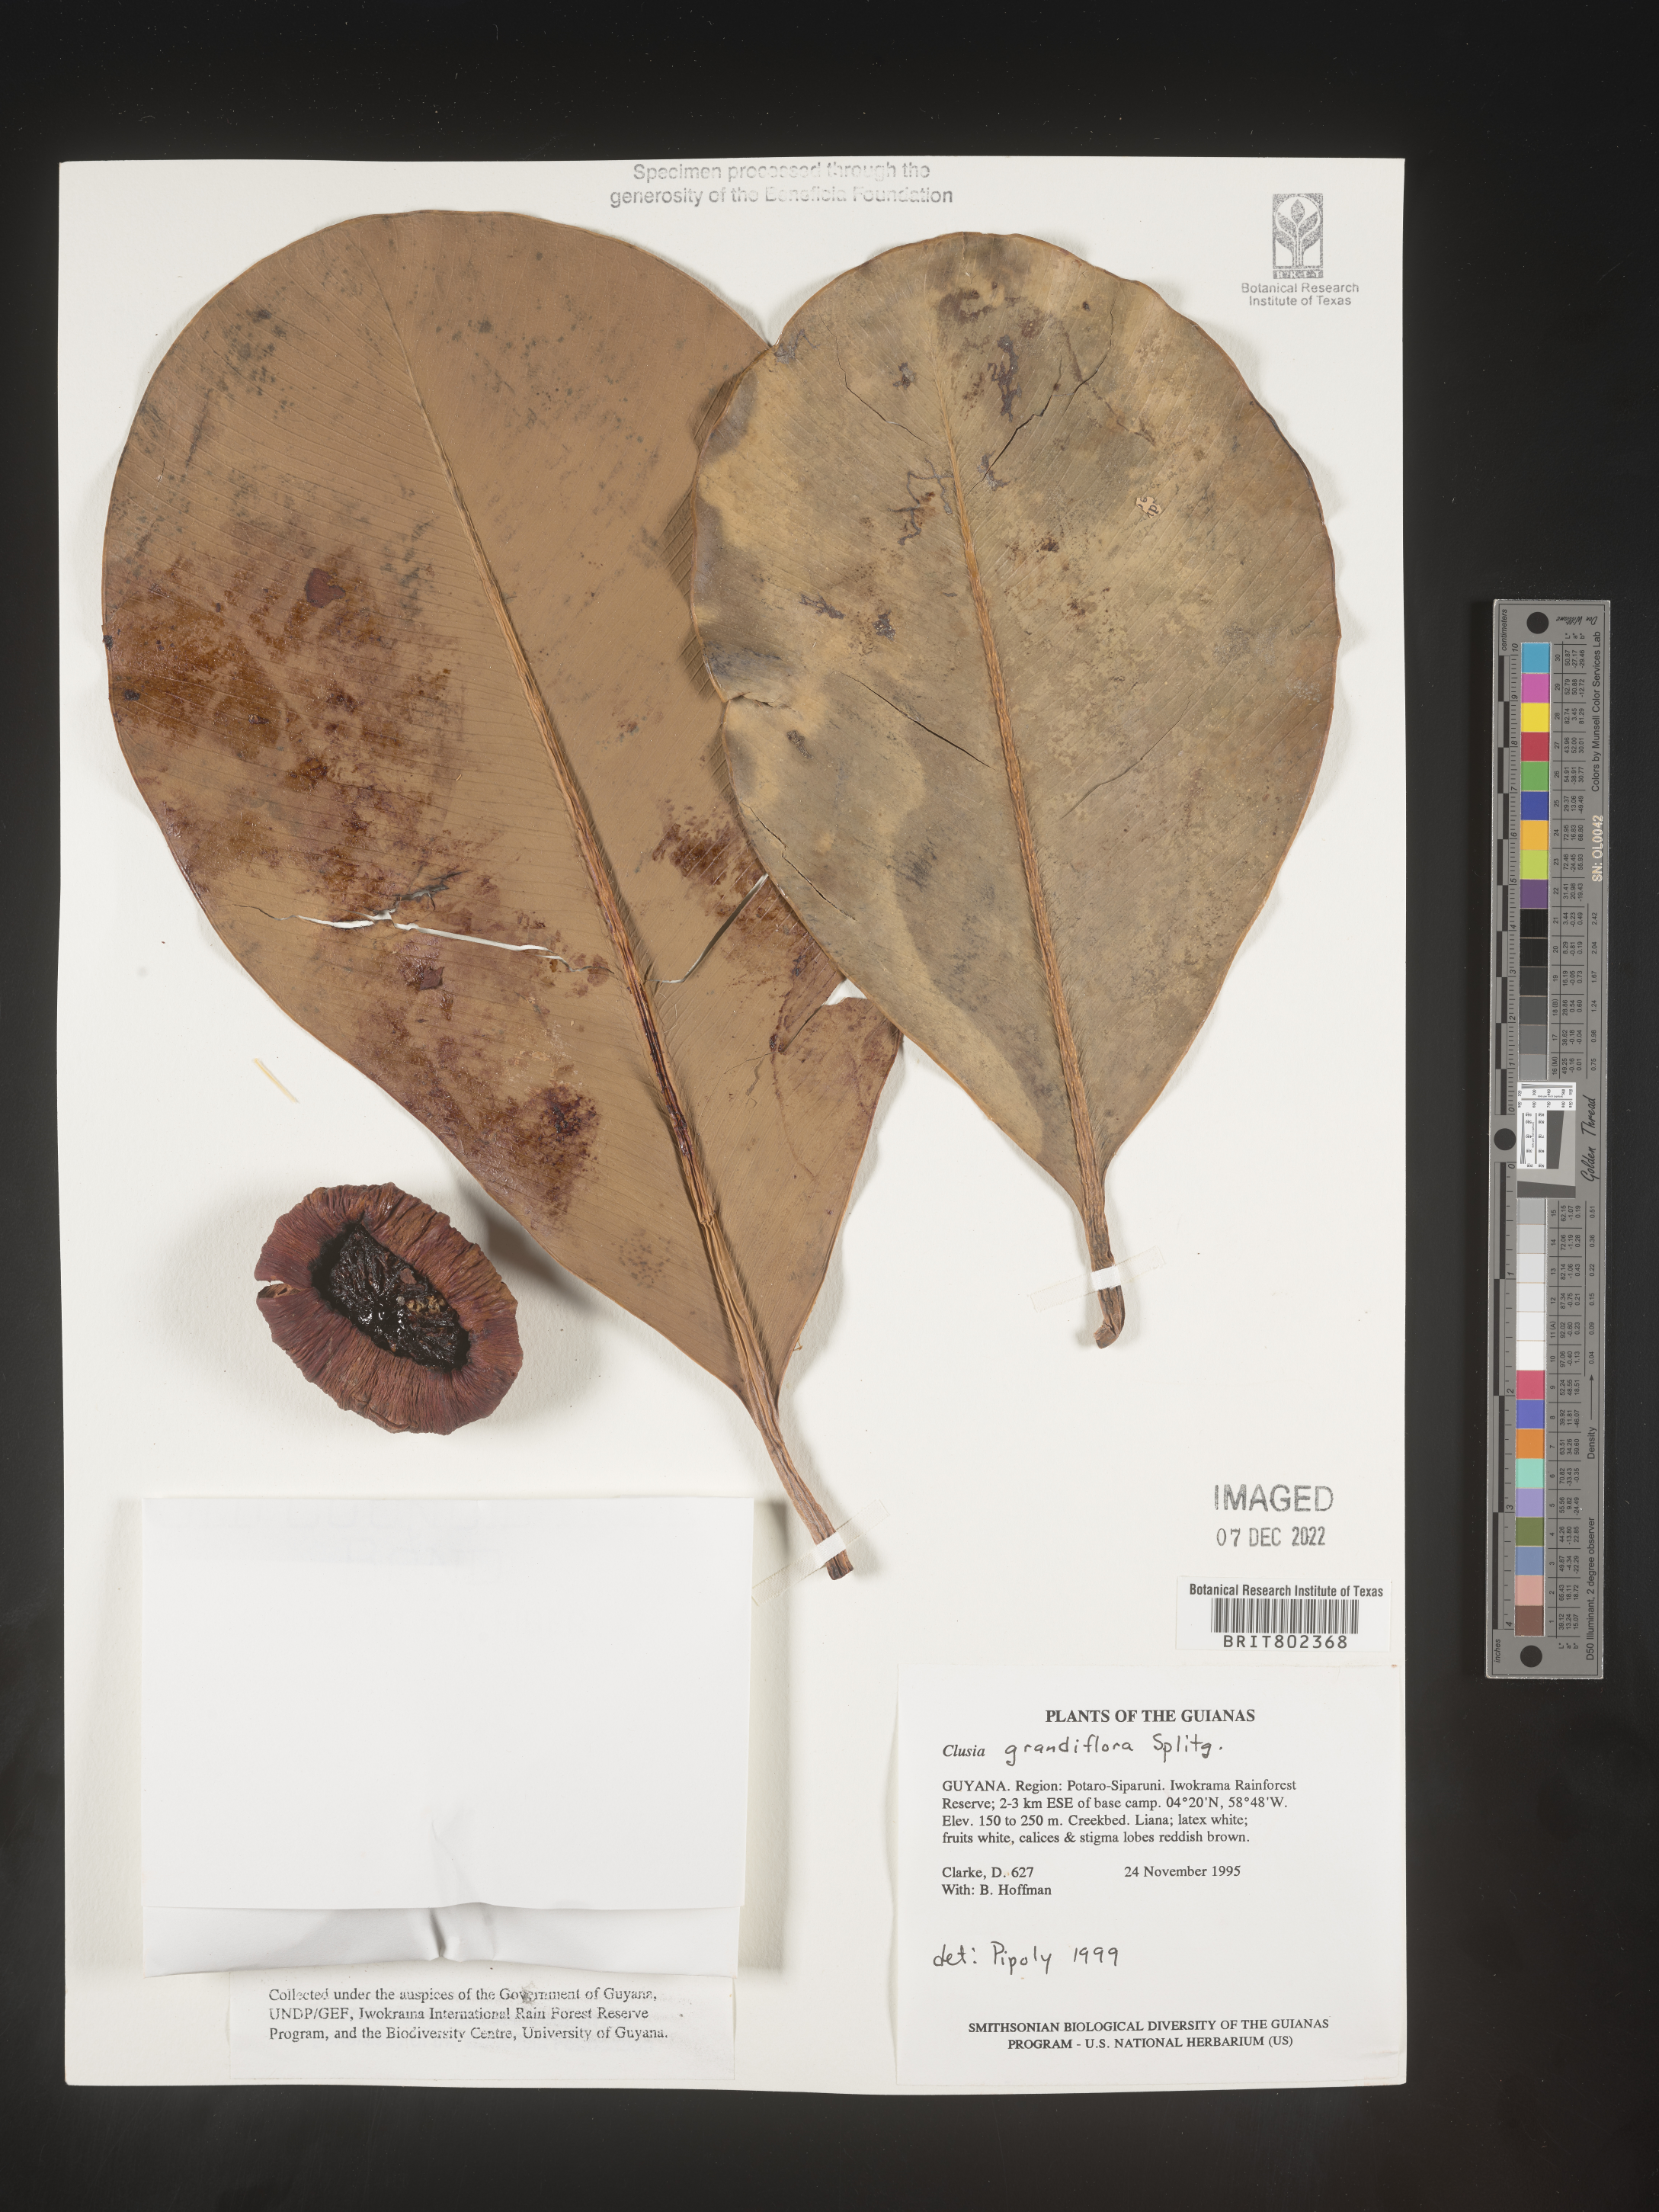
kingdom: Plantae
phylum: Tracheophyta
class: Magnoliopsida
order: Malpighiales
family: Clusiaceae
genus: Clusia
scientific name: Clusia grandiflora
